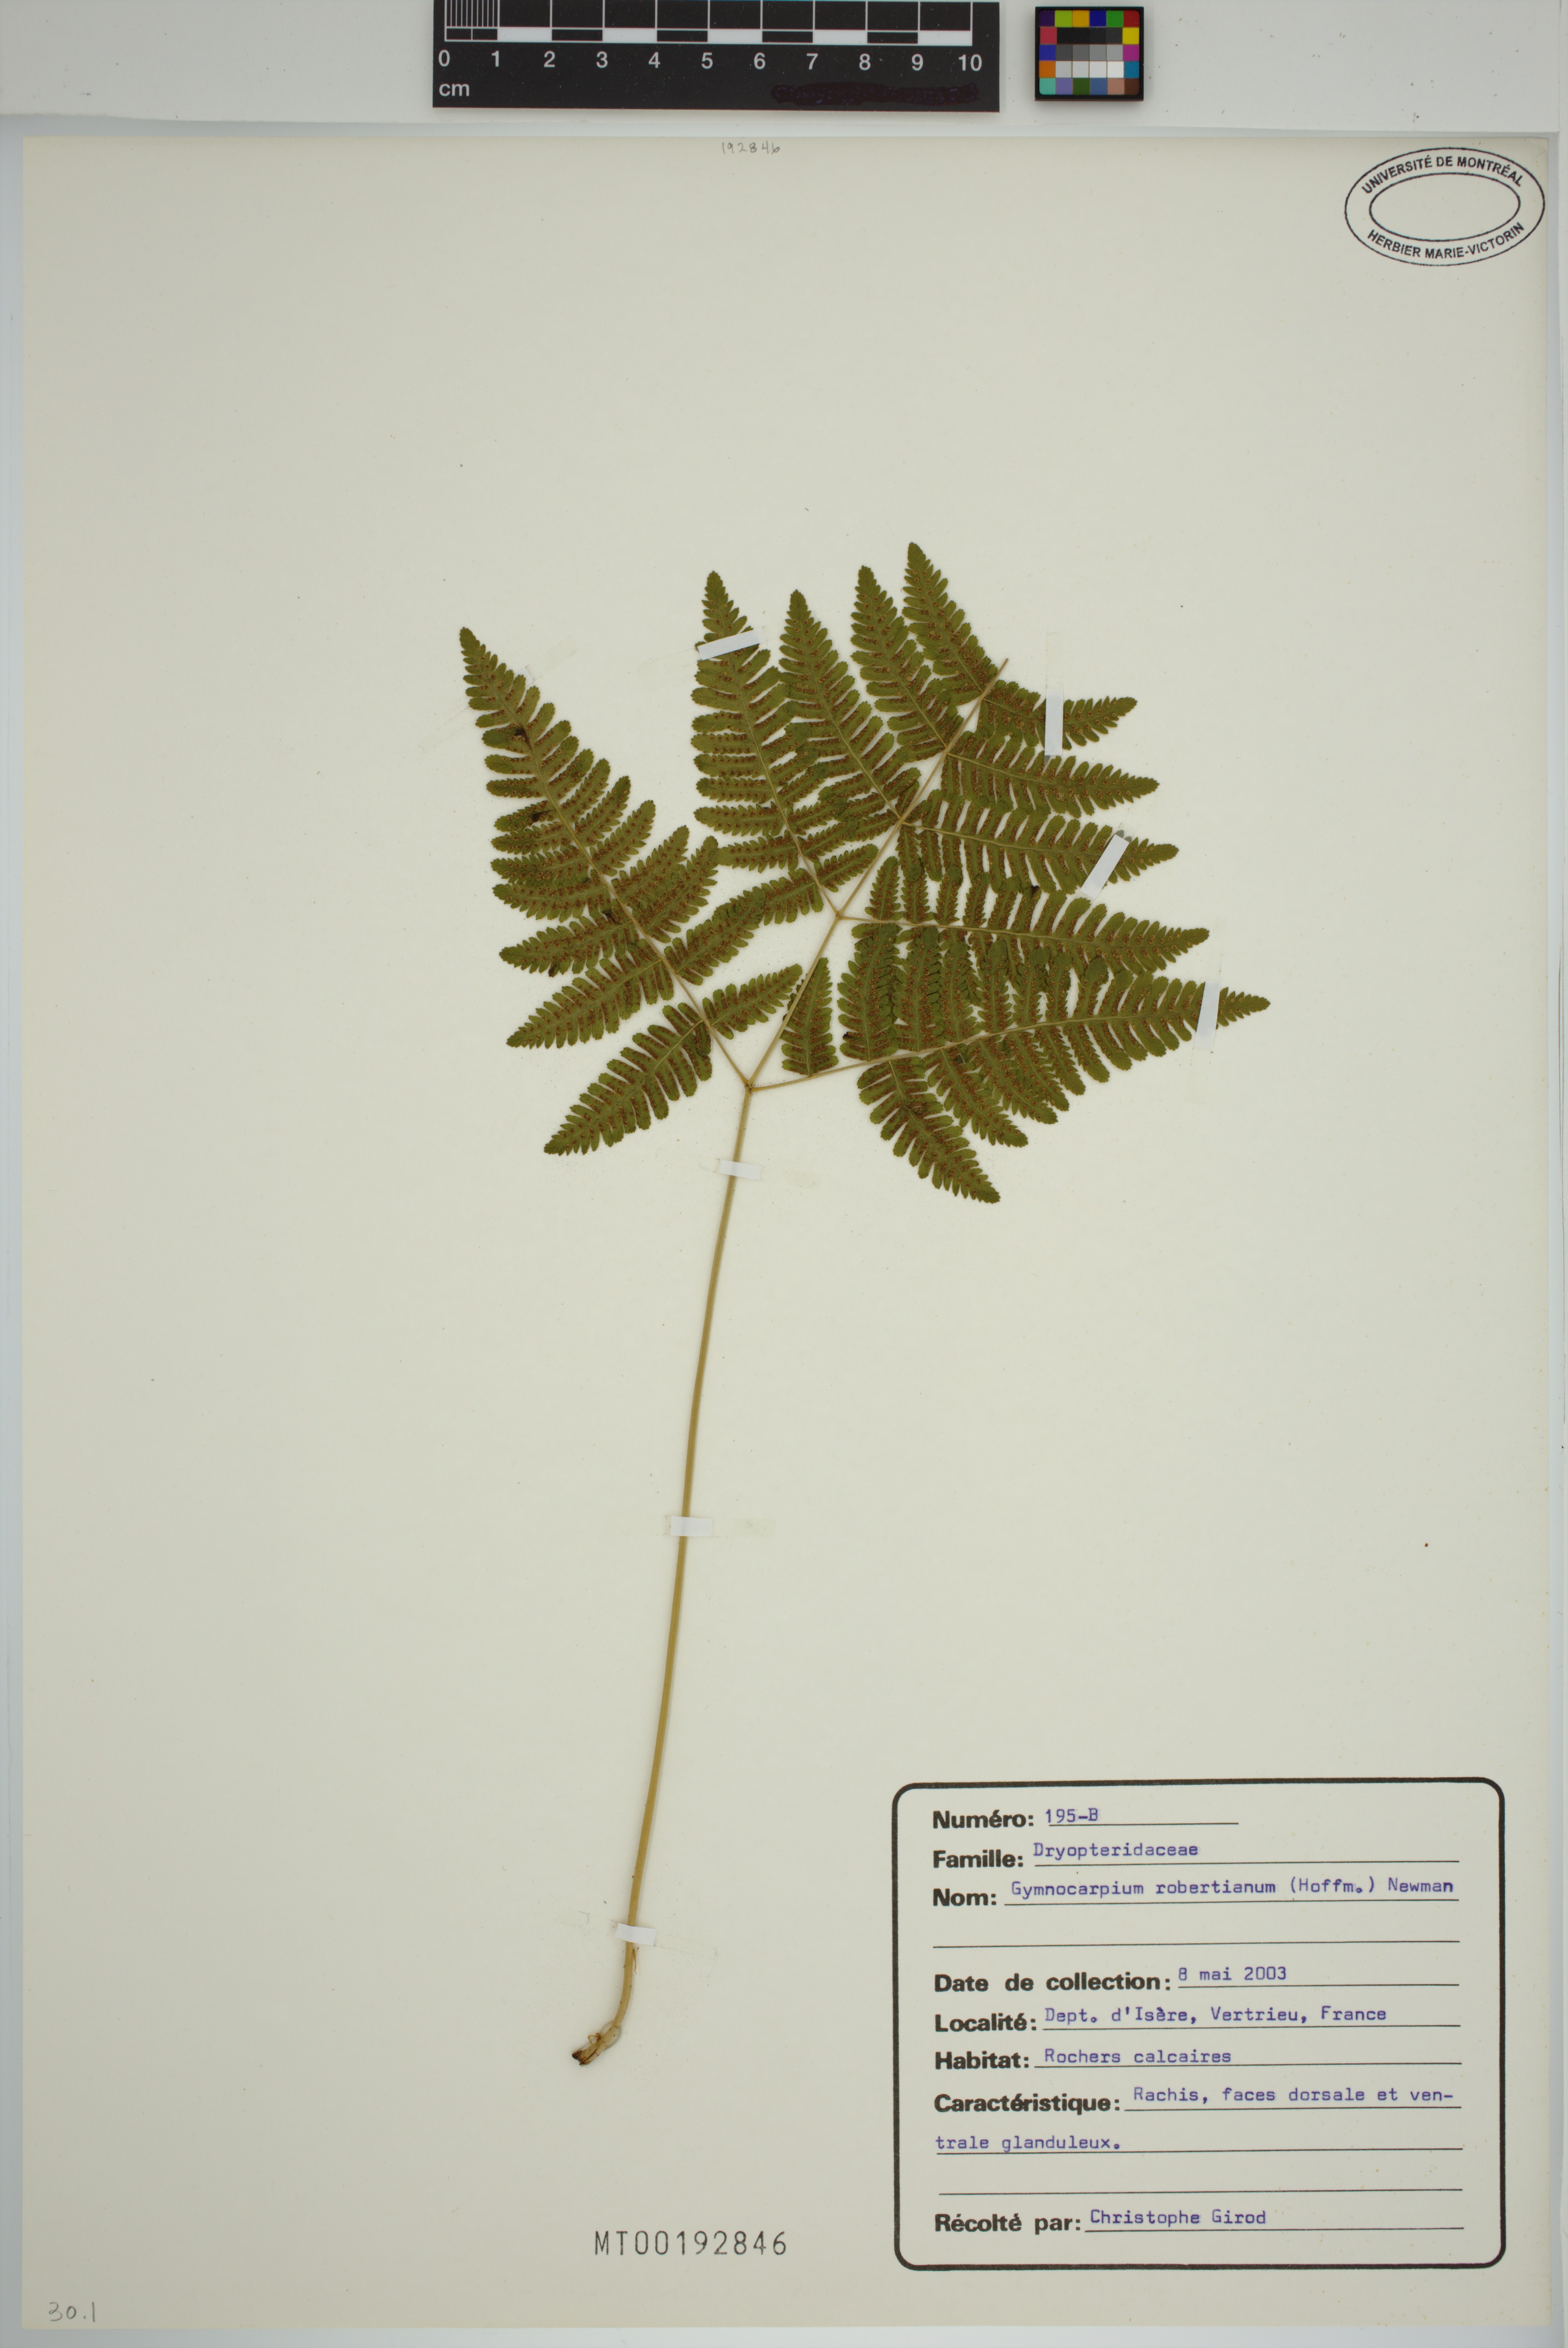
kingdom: Plantae
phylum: Tracheophyta
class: Polypodiopsida
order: Polypodiales
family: Cystopteridaceae
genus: Gymnocarpium
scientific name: Gymnocarpium robertianum
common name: Limestone fern
